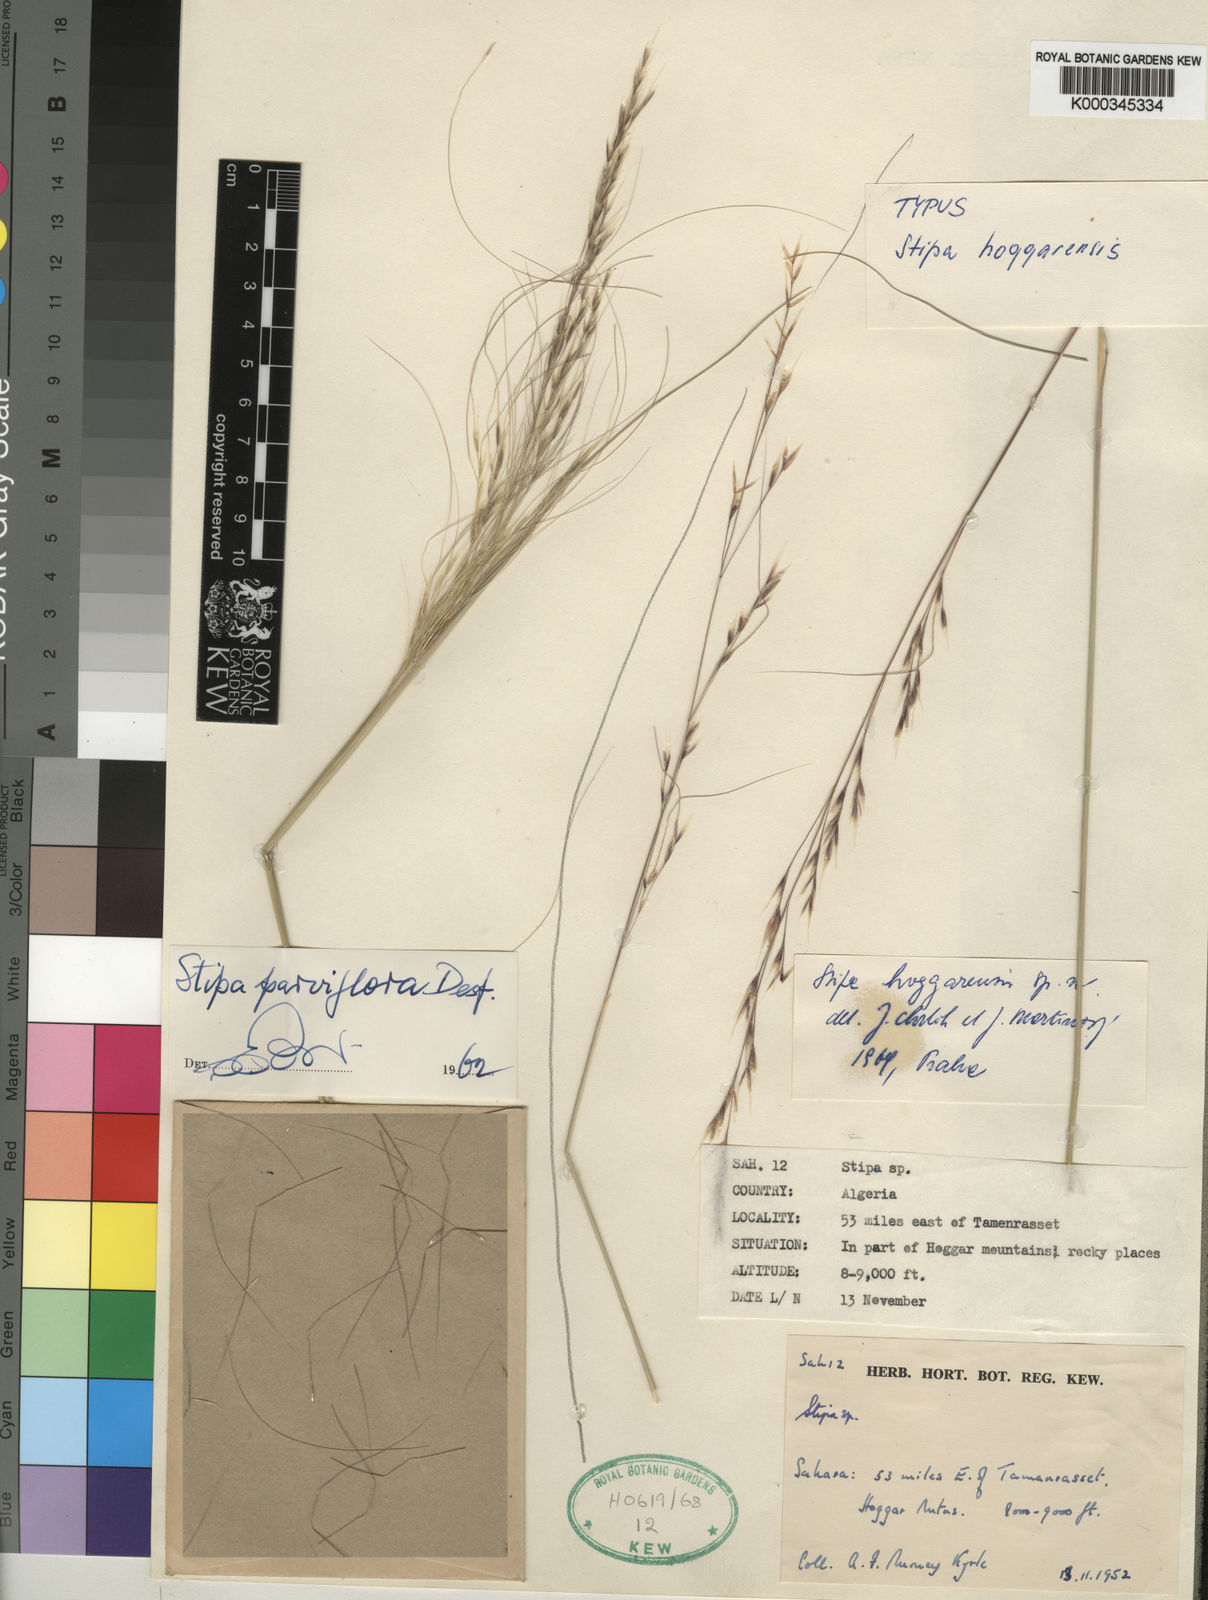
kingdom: Plantae
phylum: Tracheophyta
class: Liliopsida
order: Poales
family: Poaceae
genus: Stipa
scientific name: Stipa
